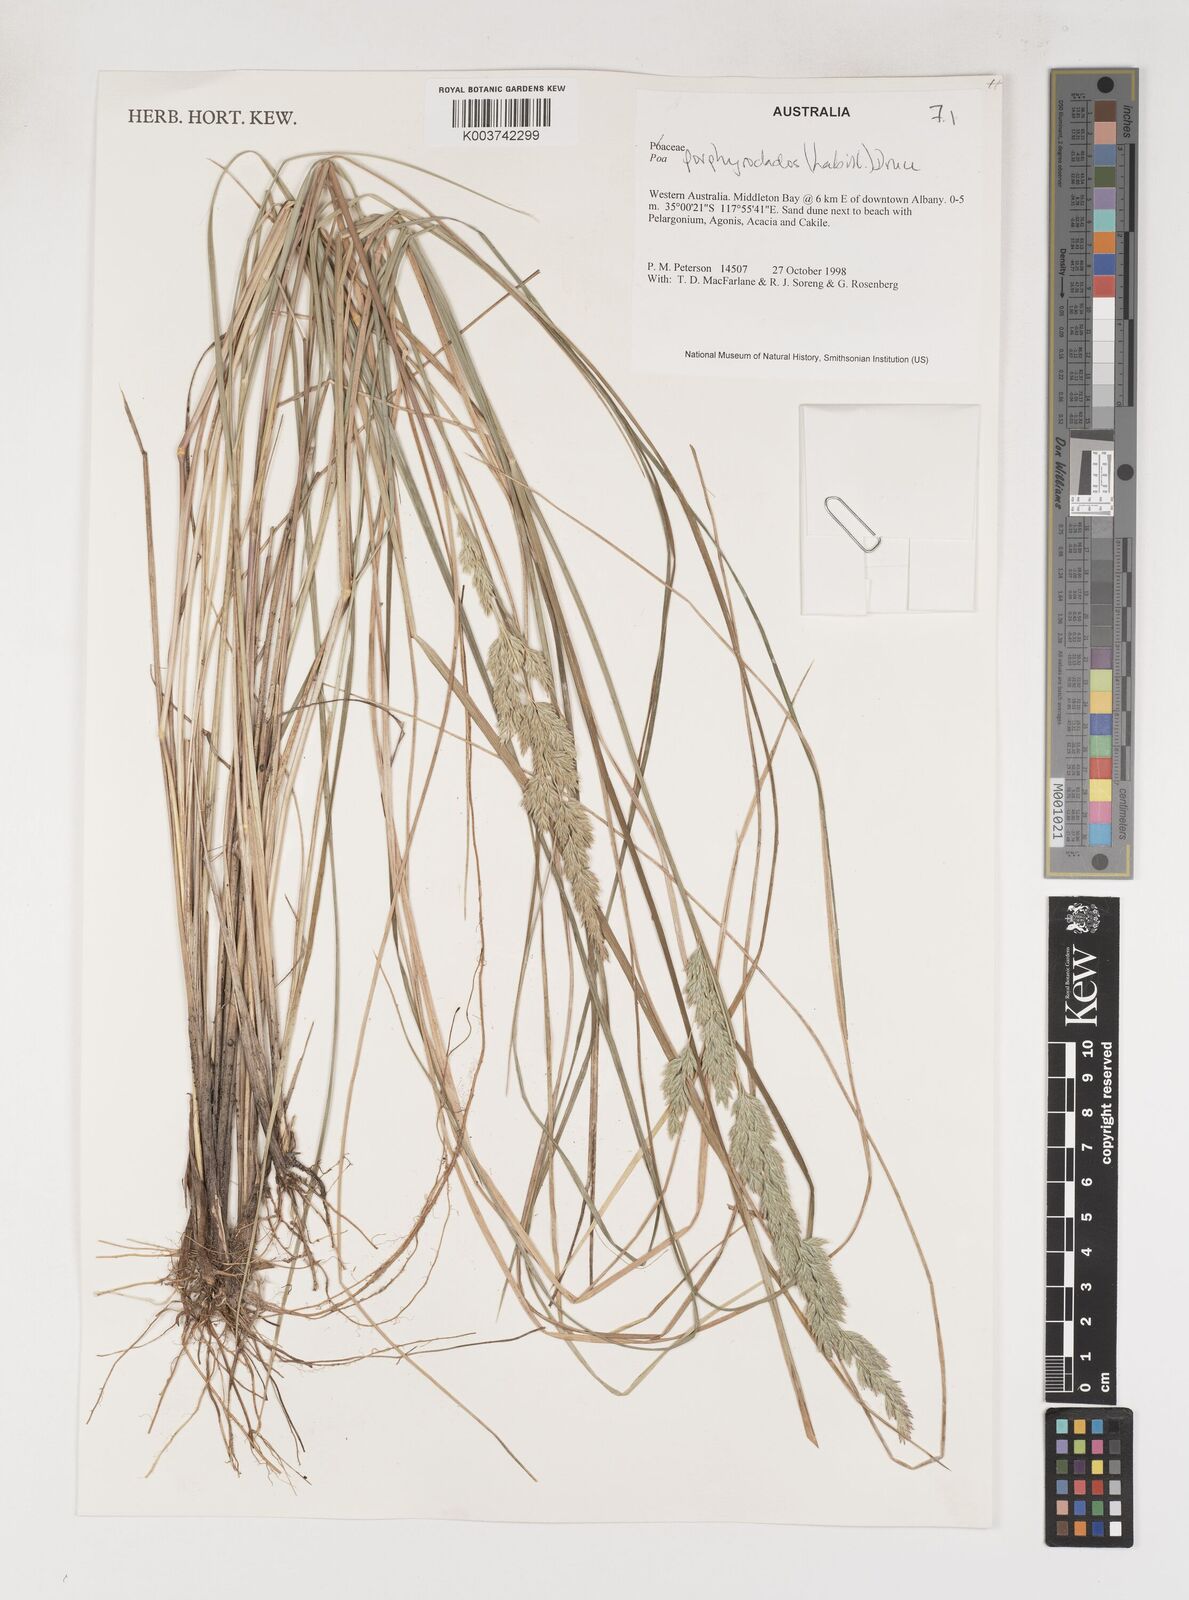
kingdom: Plantae
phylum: Tracheophyta
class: Liliopsida
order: Poales
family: Poaceae
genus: Poa
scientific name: Poa porphyroclados
